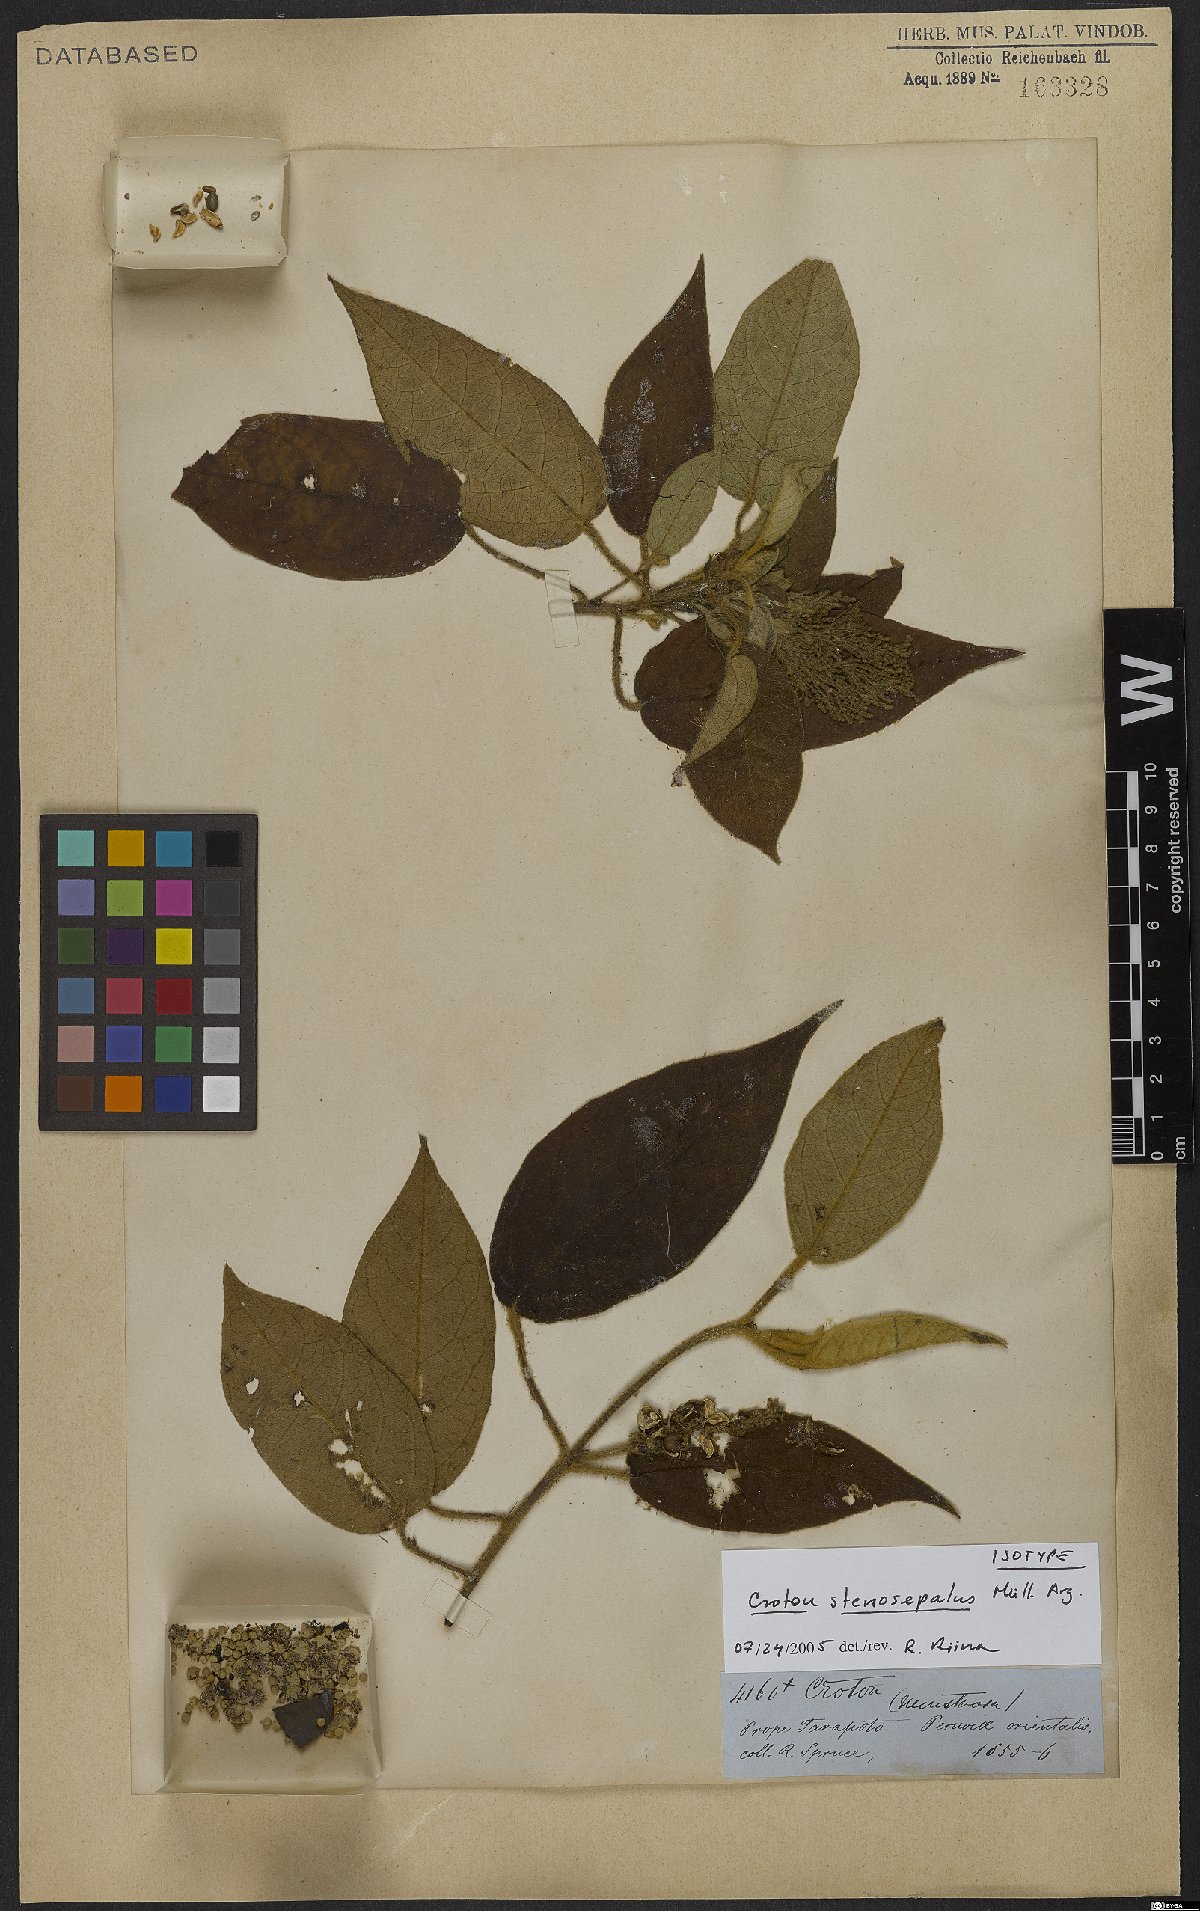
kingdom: Plantae
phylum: Tracheophyta
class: Magnoliopsida
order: Malpighiales
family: Euphorbiaceae
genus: Croton
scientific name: Croton stenosepalus
